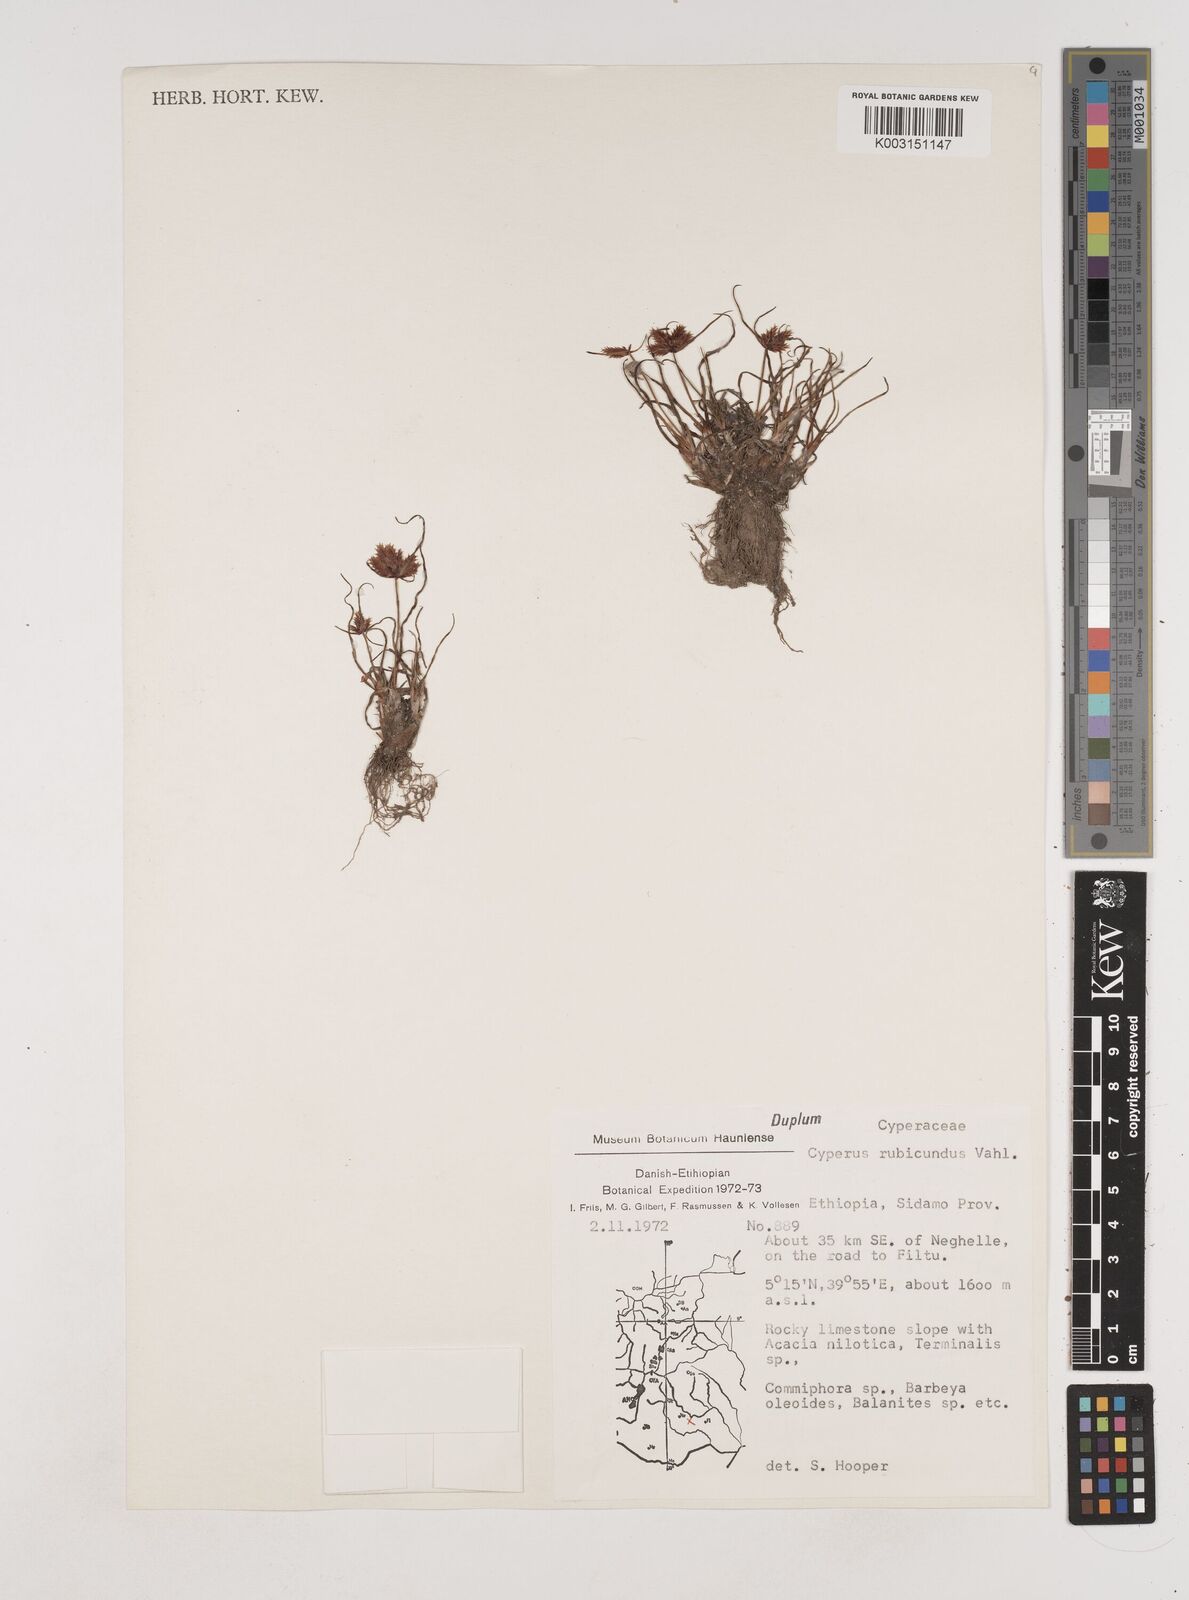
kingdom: Plantae
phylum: Tracheophyta
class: Liliopsida
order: Poales
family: Cyperaceae
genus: Cyperus
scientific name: Cyperus rubicundus
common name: Coco-grass
